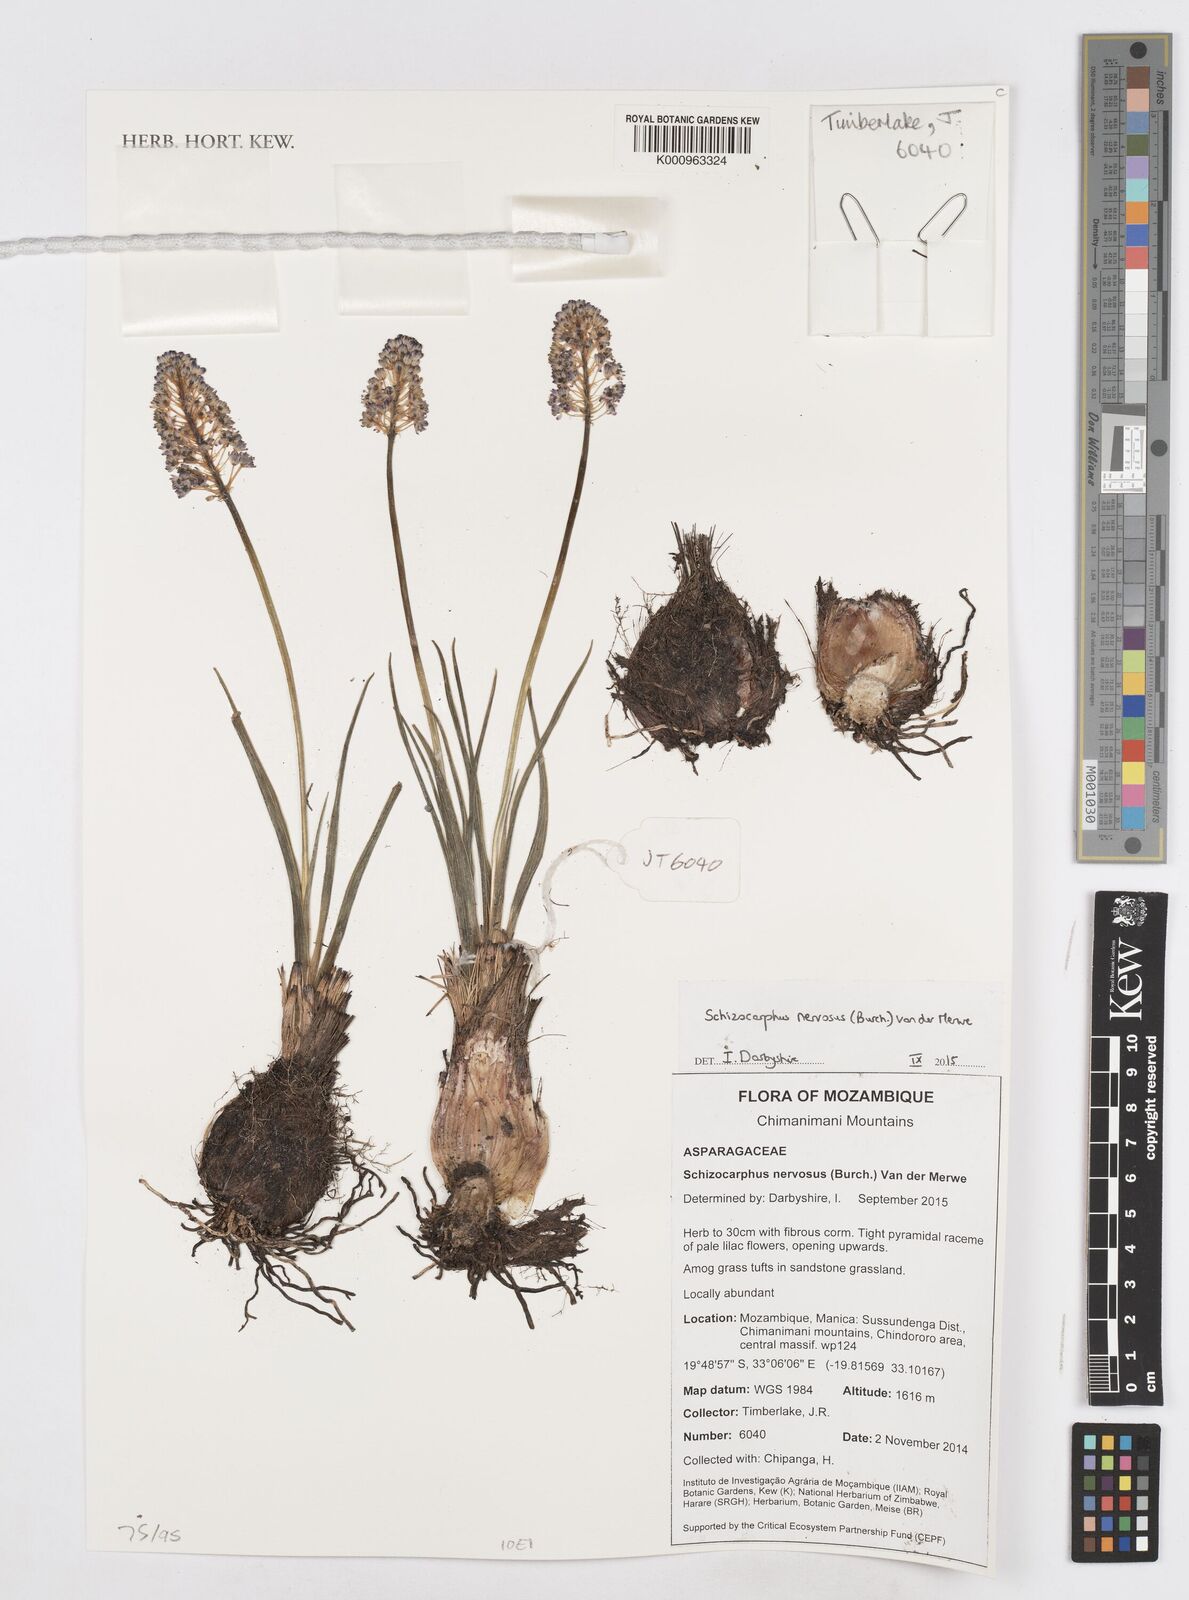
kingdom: Plantae
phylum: Tracheophyta
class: Liliopsida
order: Asparagales
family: Asparagaceae
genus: Schizocarphus
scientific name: Schizocarphus nervosus
